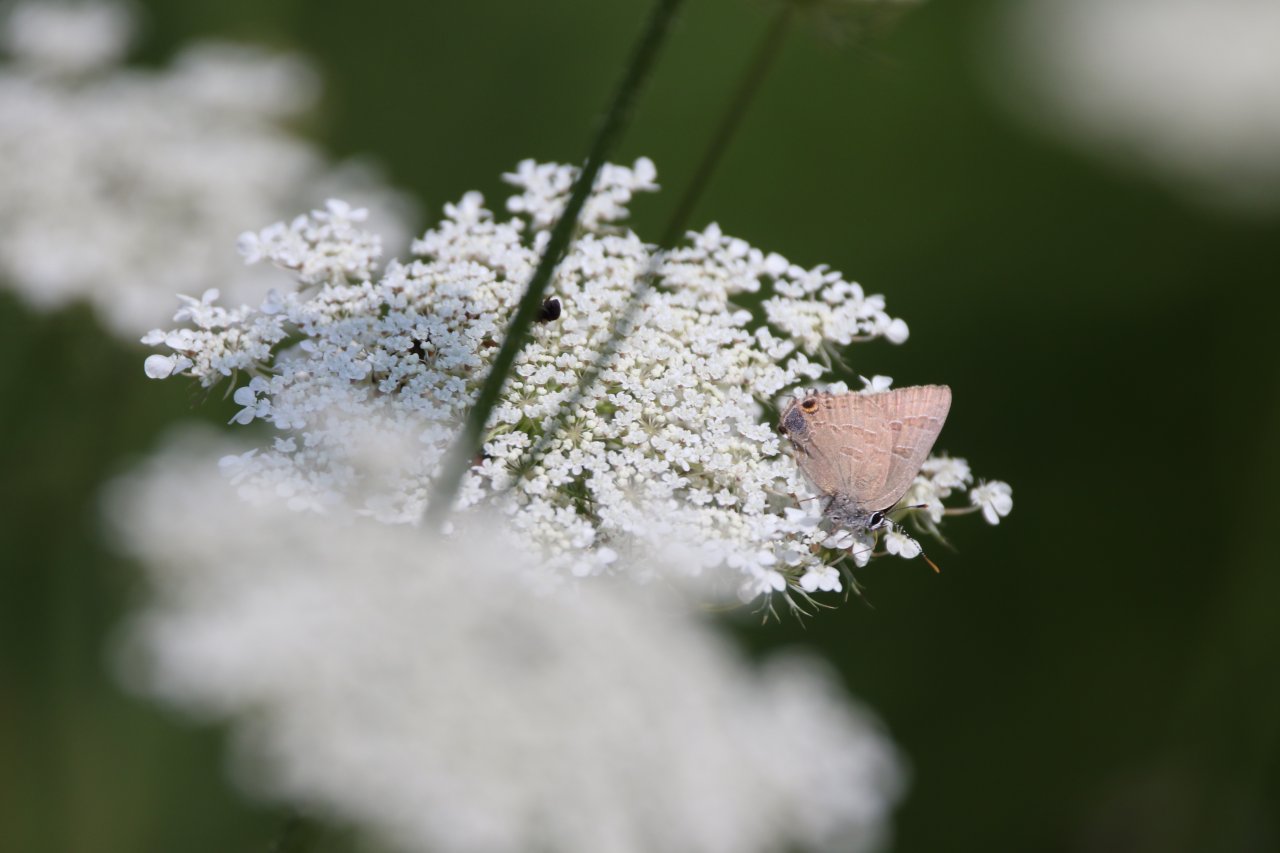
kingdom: Animalia
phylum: Arthropoda
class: Insecta
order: Lepidoptera
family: Lycaenidae
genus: Strymon
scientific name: Strymon caryaevorus
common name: Hickory Hairstreak
